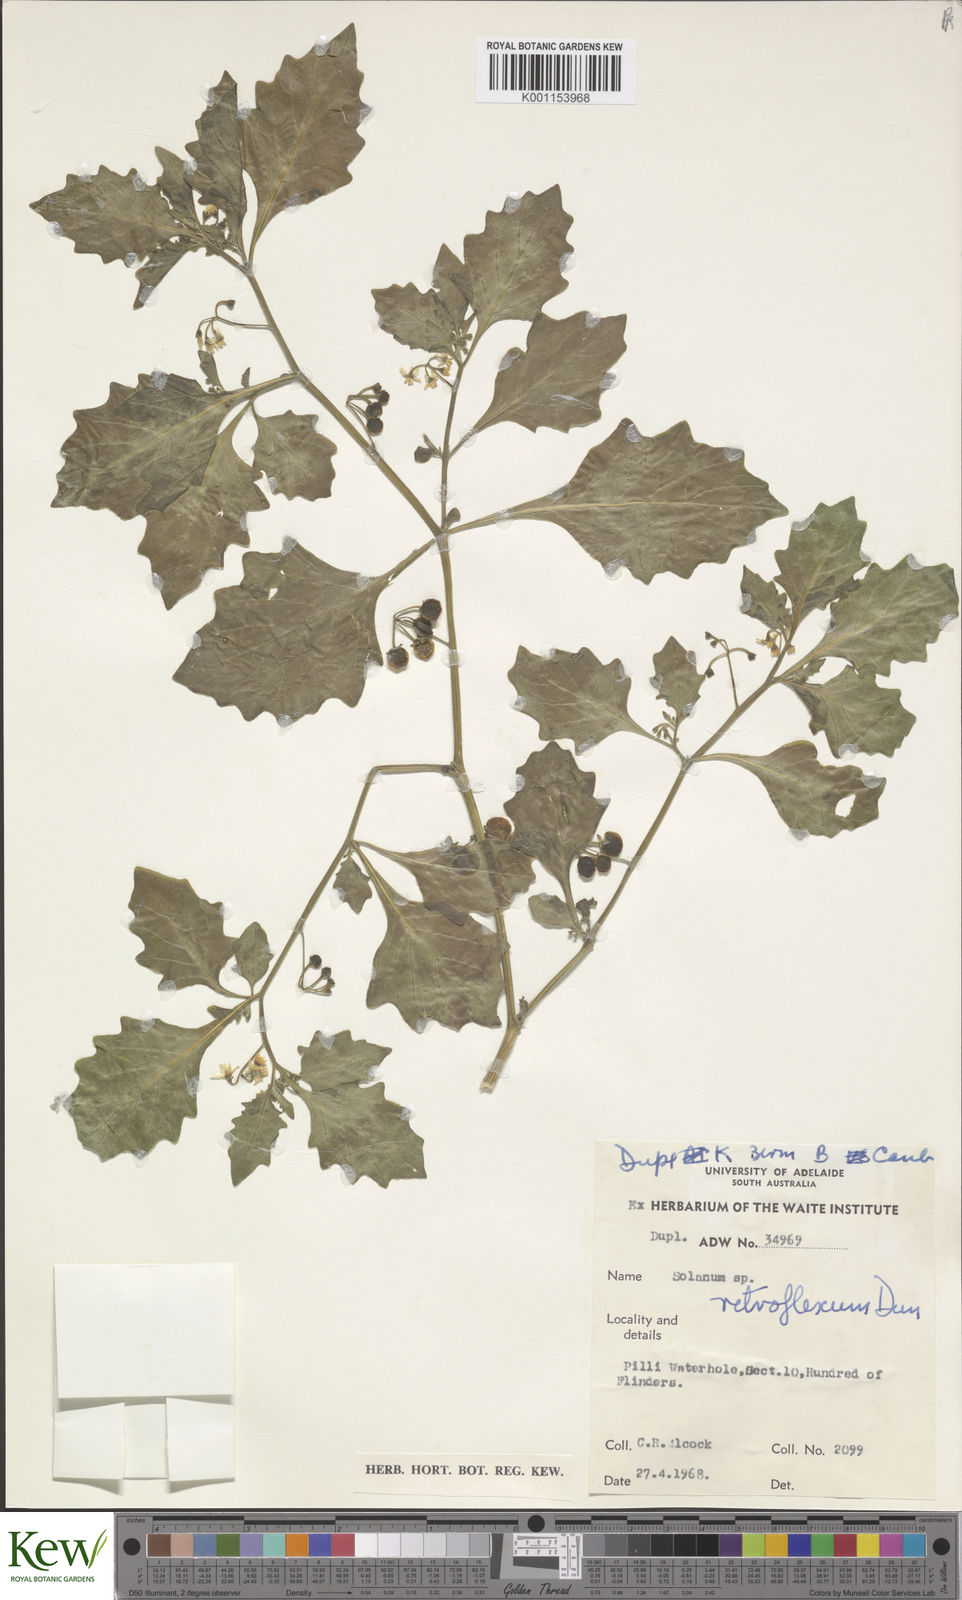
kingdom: Plantae
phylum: Tracheophyta
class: Magnoliopsida
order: Solanales
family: Solanaceae
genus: Solanum
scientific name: Solanum retroflexum
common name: Wonderberry
